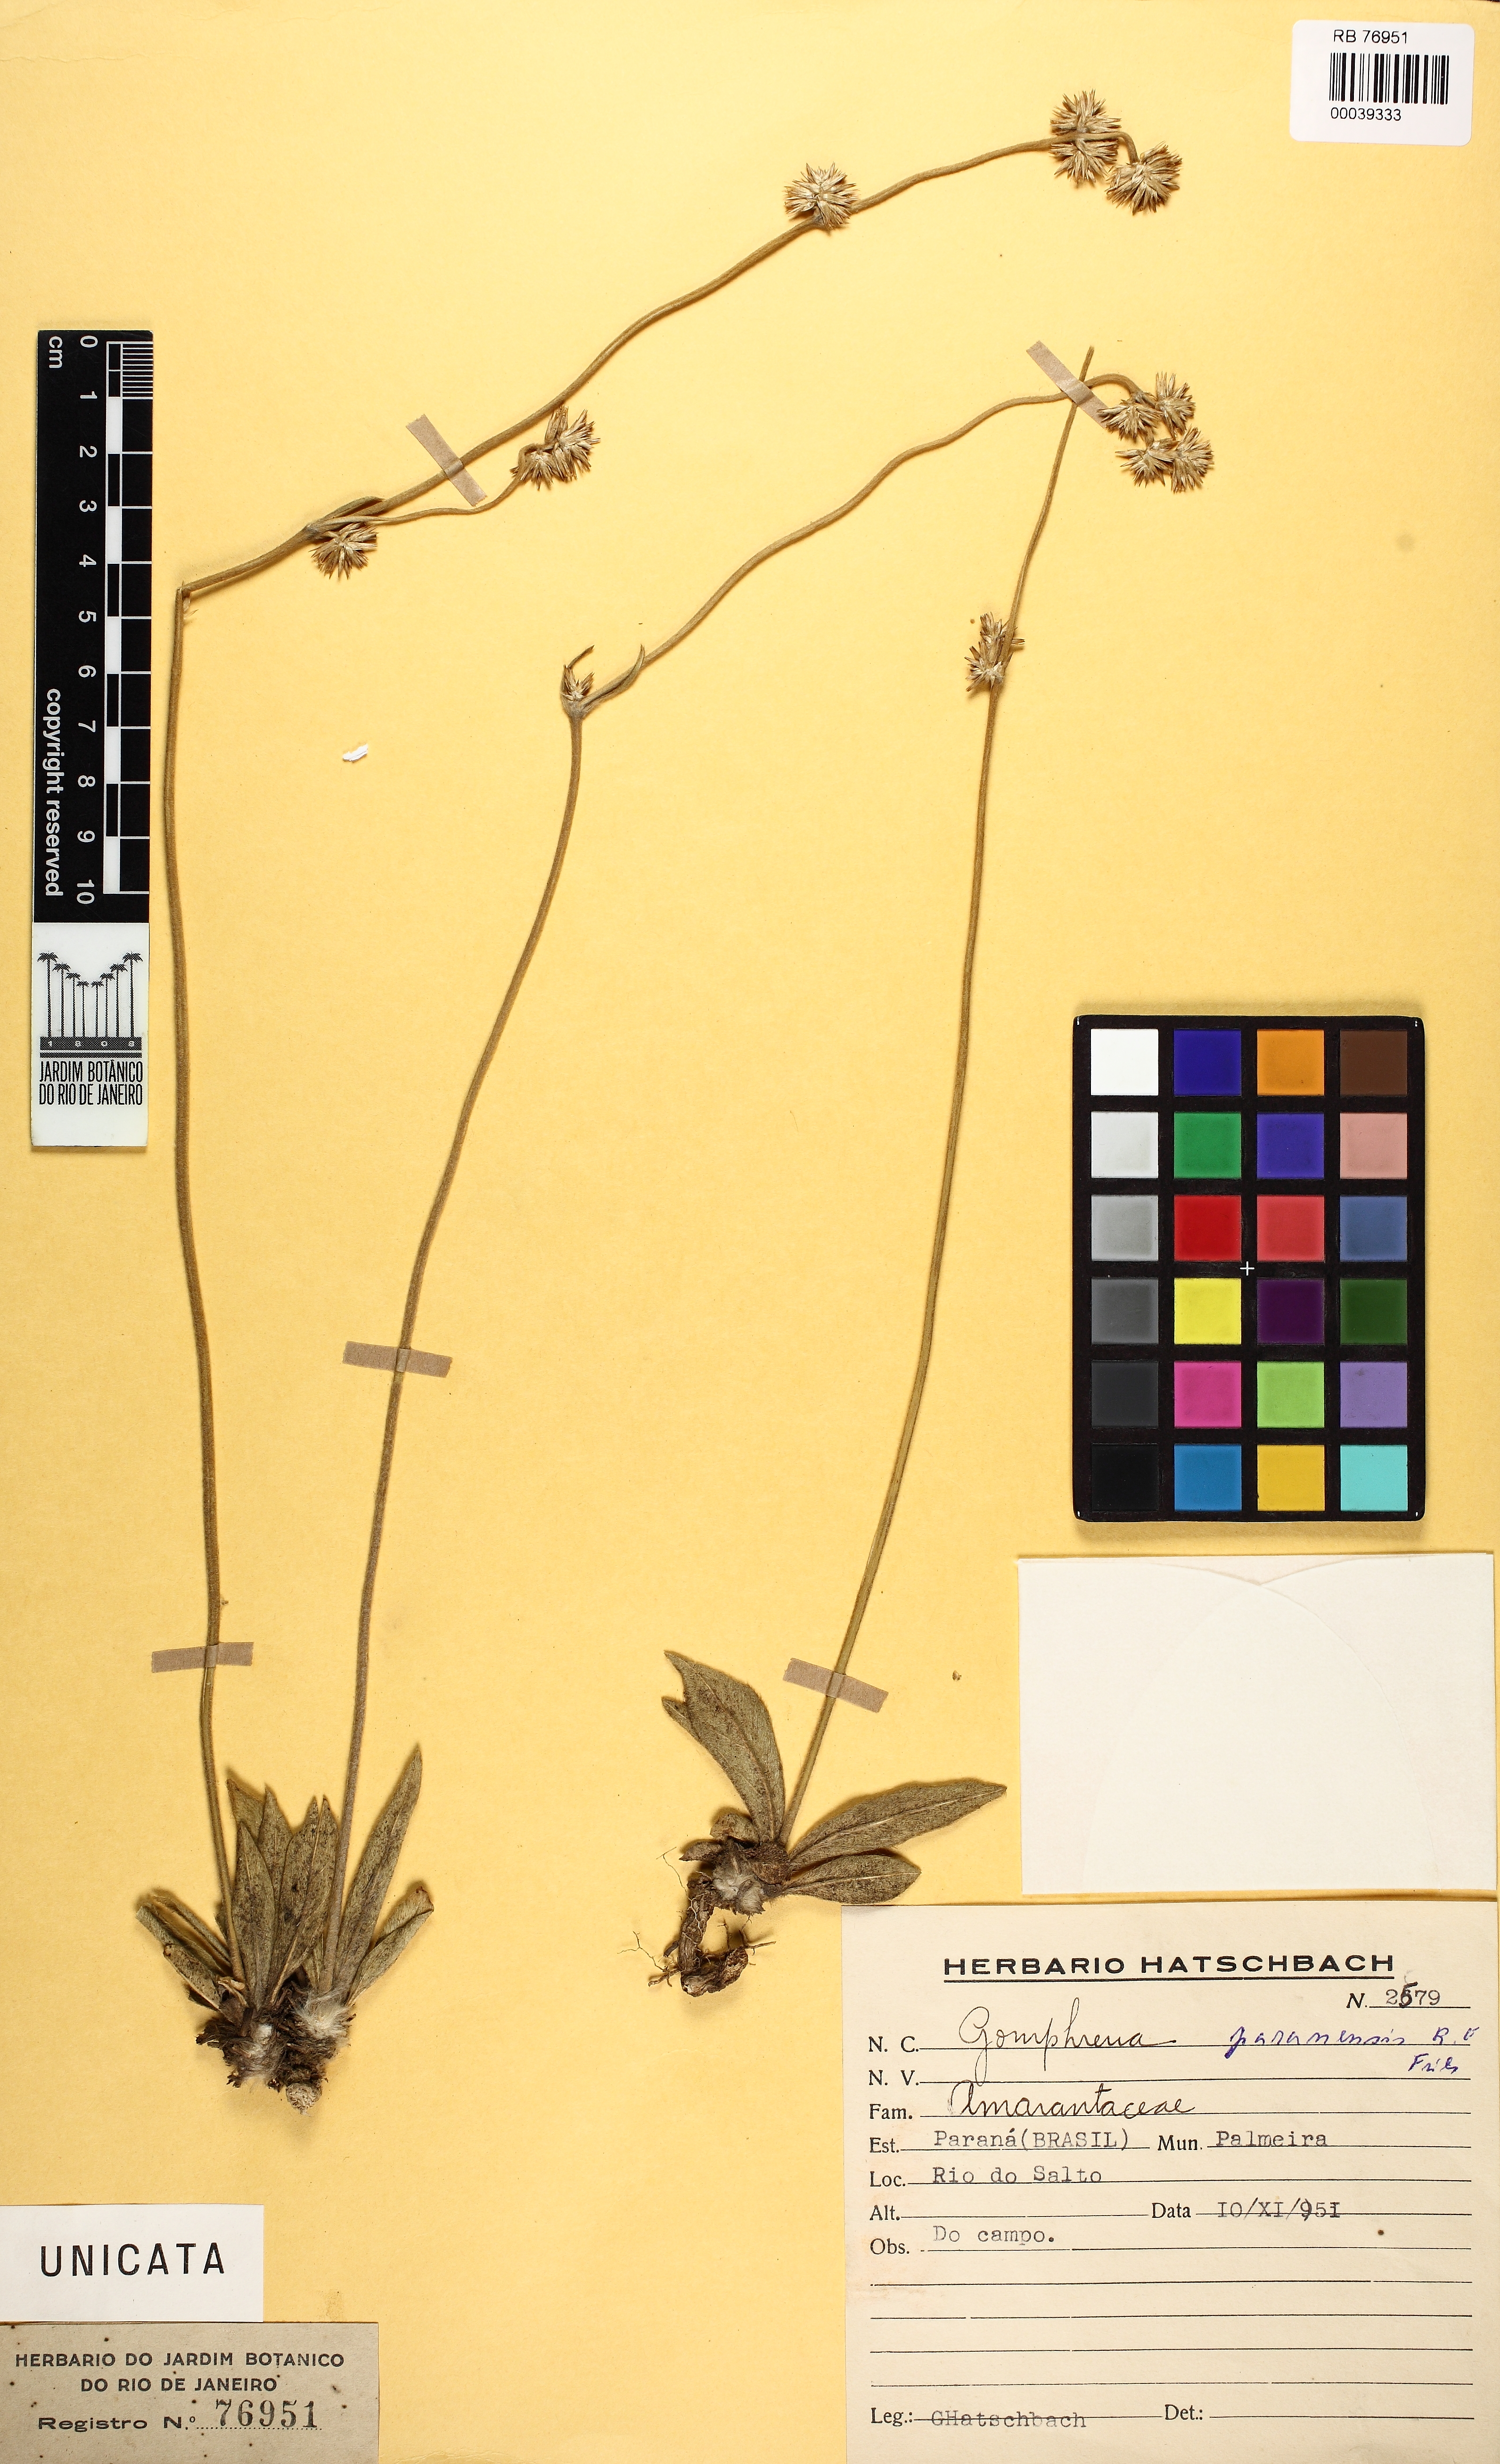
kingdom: Plantae
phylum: Tracheophyta
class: Magnoliopsida
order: Caryophyllales
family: Amaranthaceae
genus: Gomphrena
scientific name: Gomphrena paranensis
